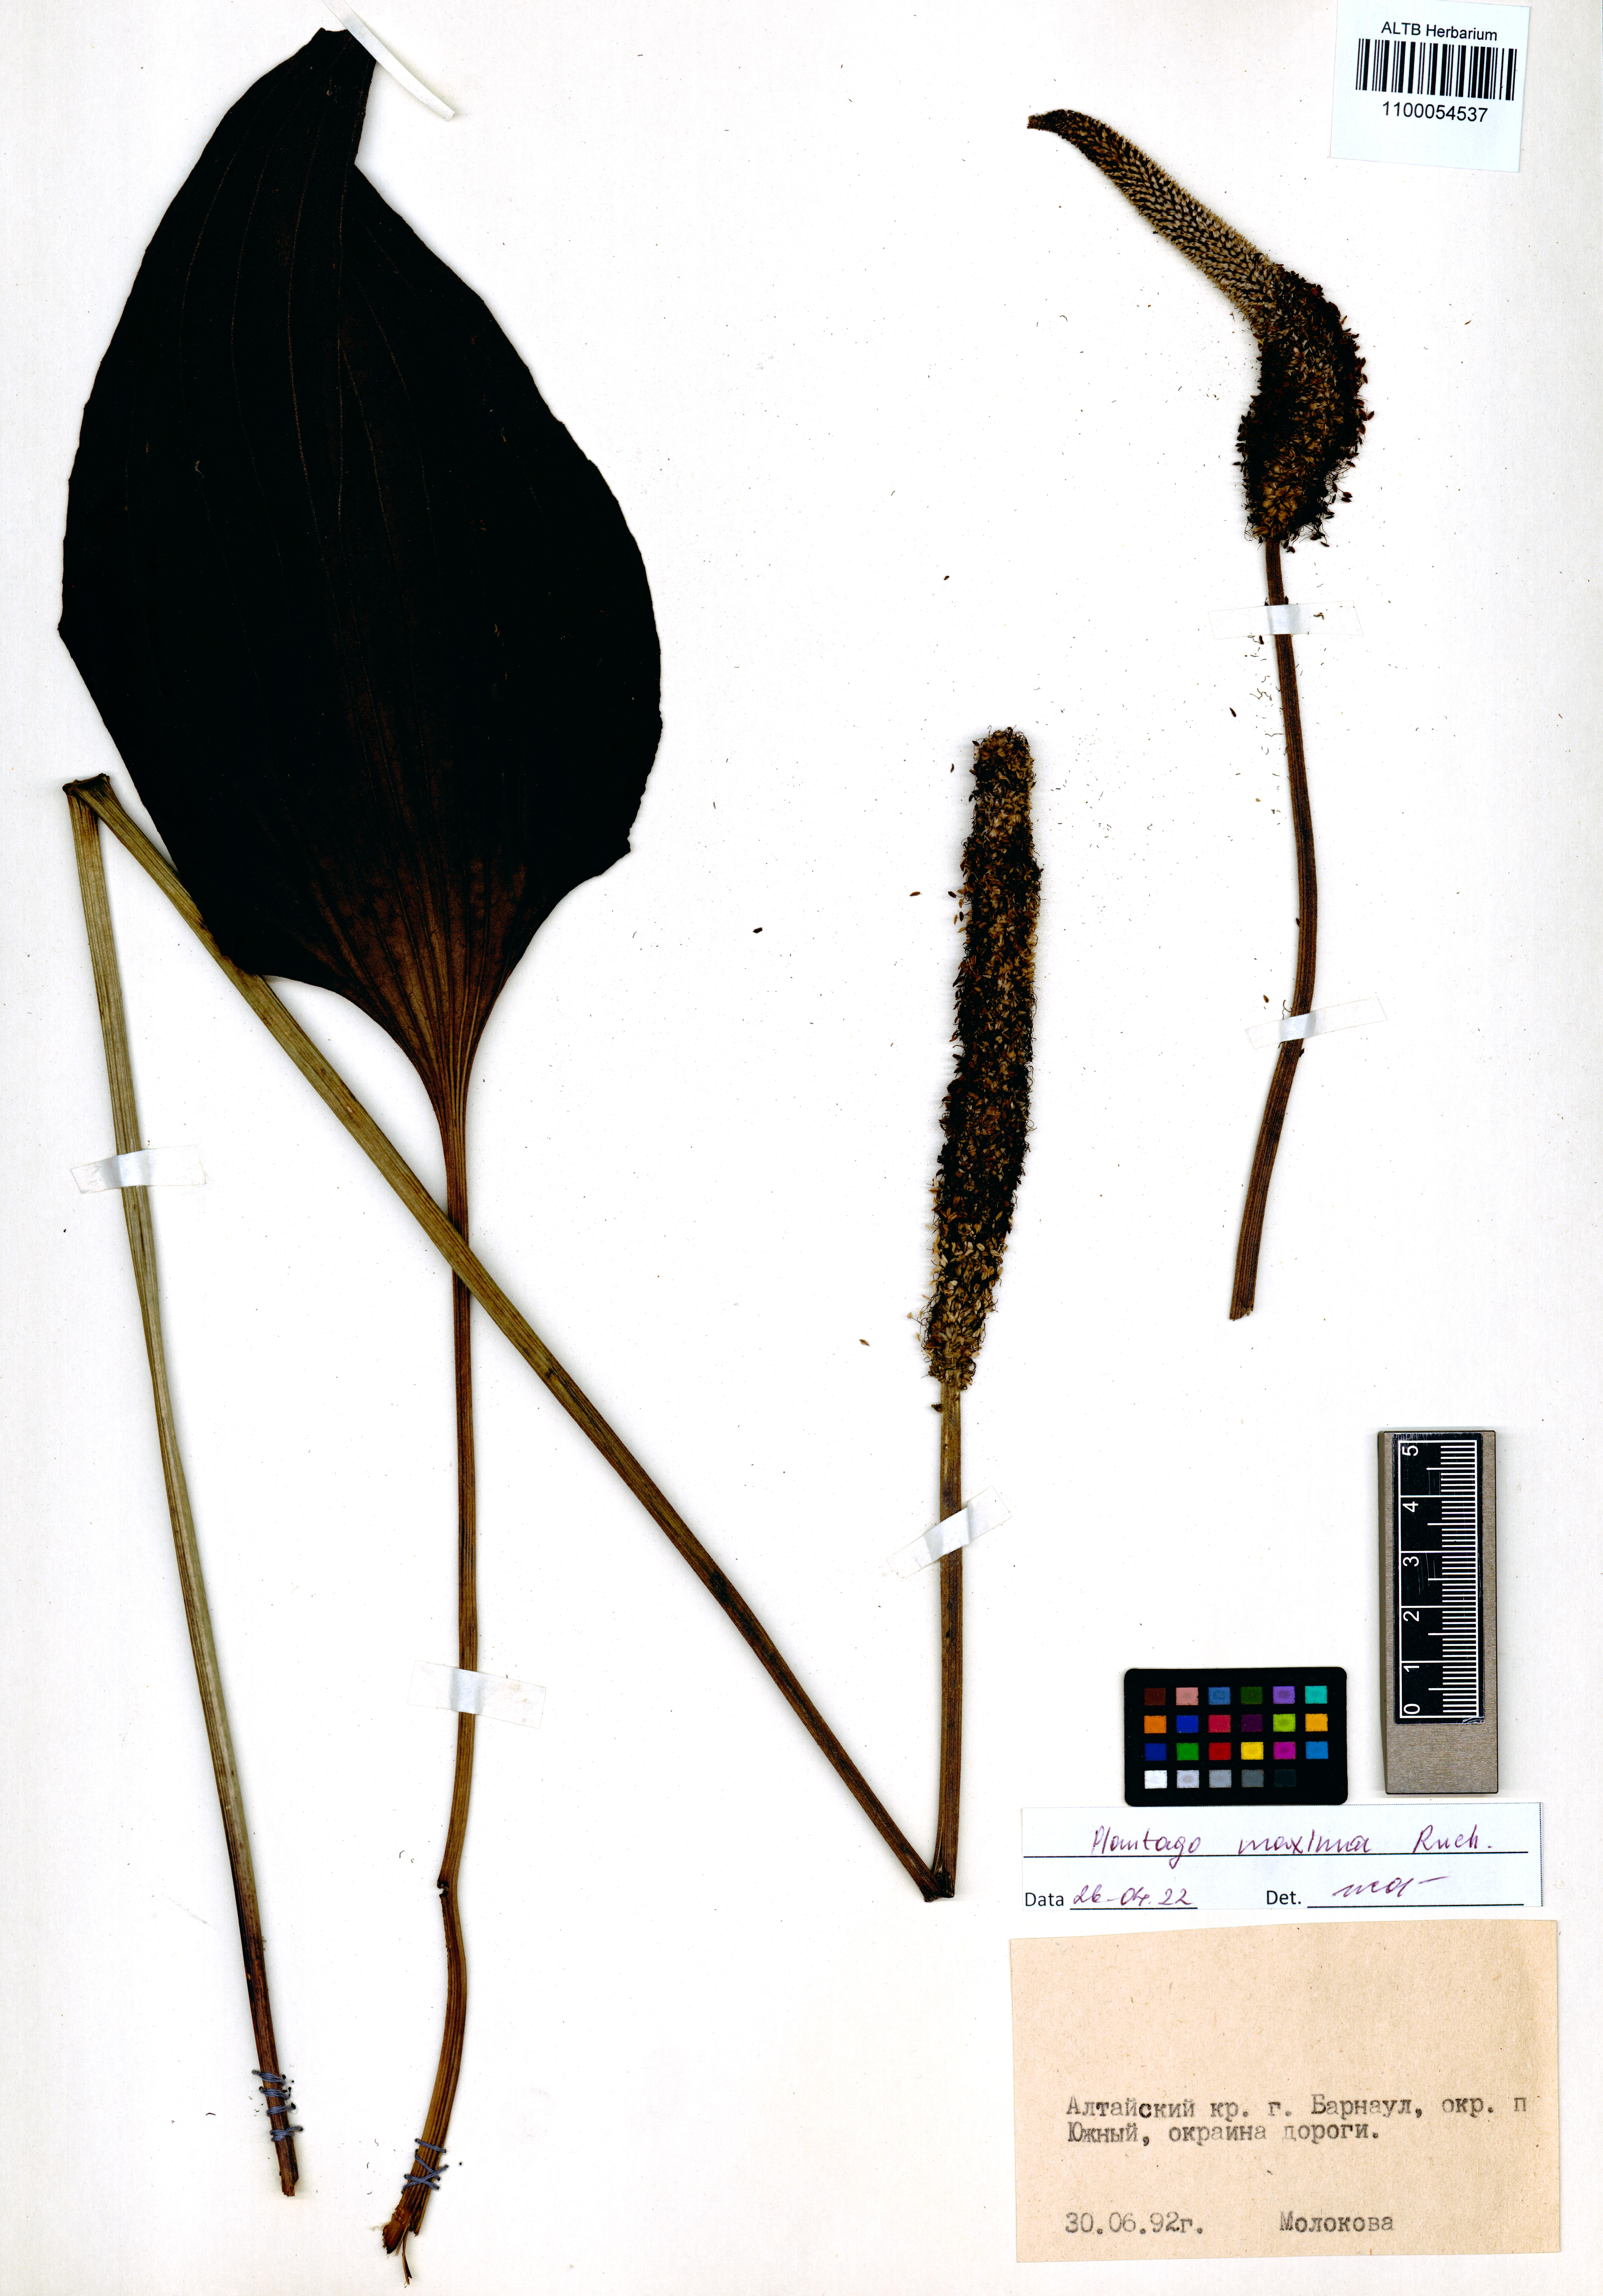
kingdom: Plantae
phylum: Tracheophyta
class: Magnoliopsida
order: Lamiales
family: Plantaginaceae
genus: Plantago
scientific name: Plantago maxima
